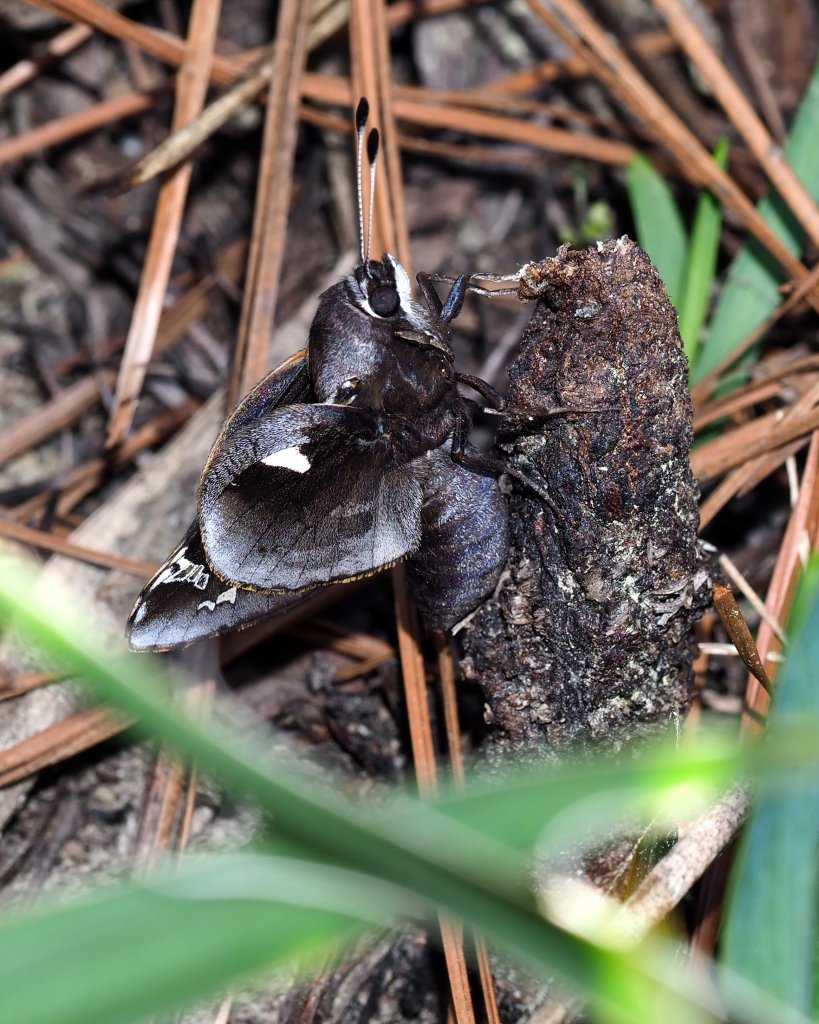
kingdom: Animalia
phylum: Arthropoda
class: Insecta
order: Lepidoptera
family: Hesperiidae
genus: Megathymus
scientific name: Megathymus yuccae
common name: Yucca Giant-Skipper
